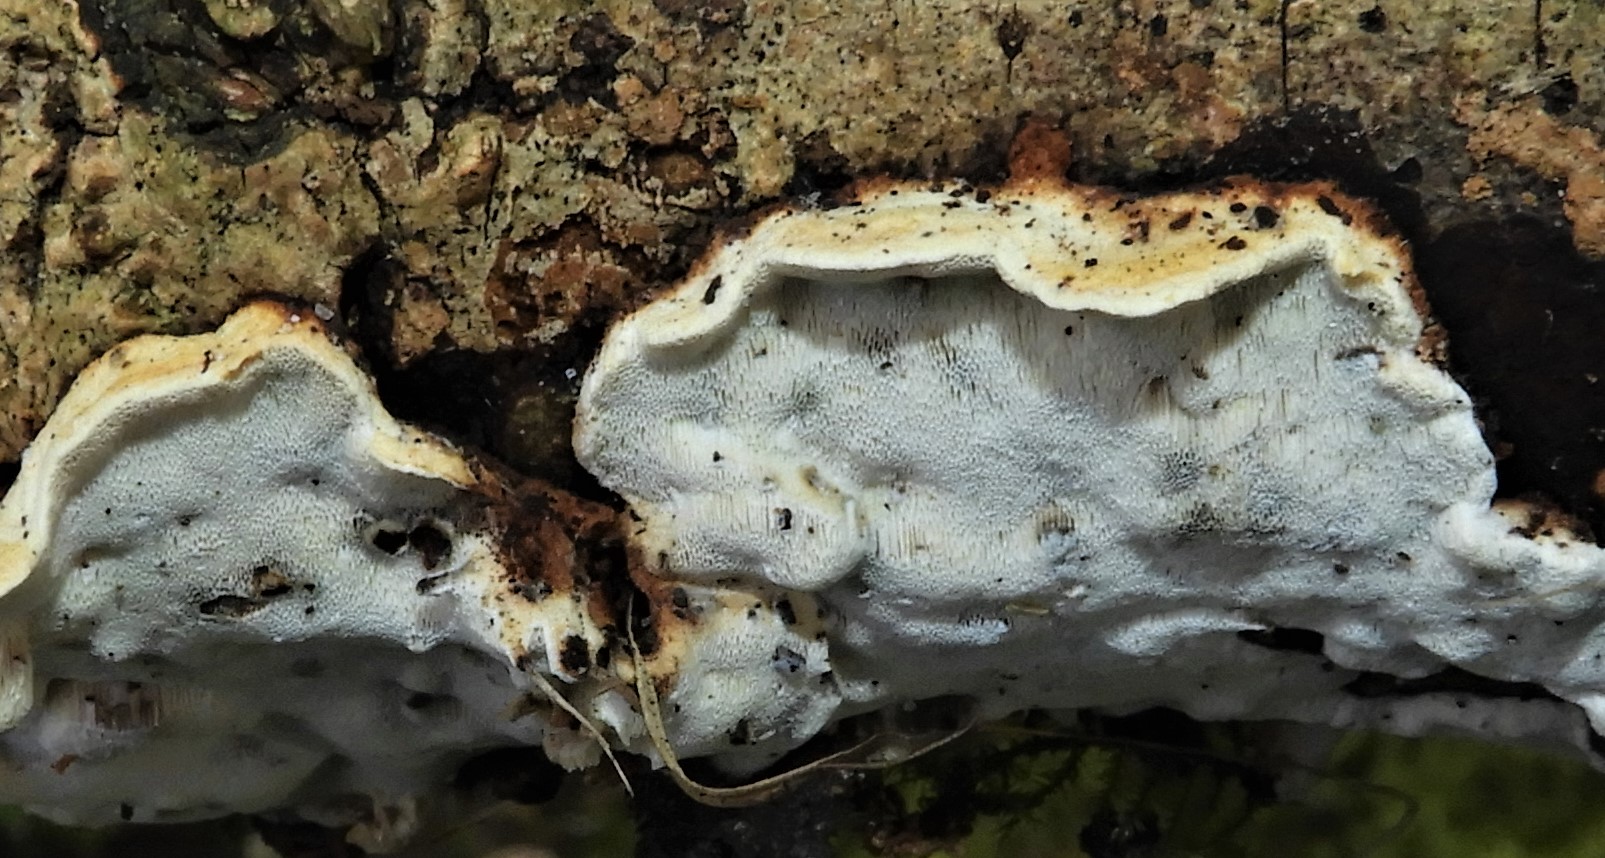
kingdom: Fungi
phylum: Basidiomycota
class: Agaricomycetes
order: Polyporales
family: Incrustoporiaceae
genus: Skeletocutis
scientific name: Skeletocutis nemoralis
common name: stor krystalporesvamp
